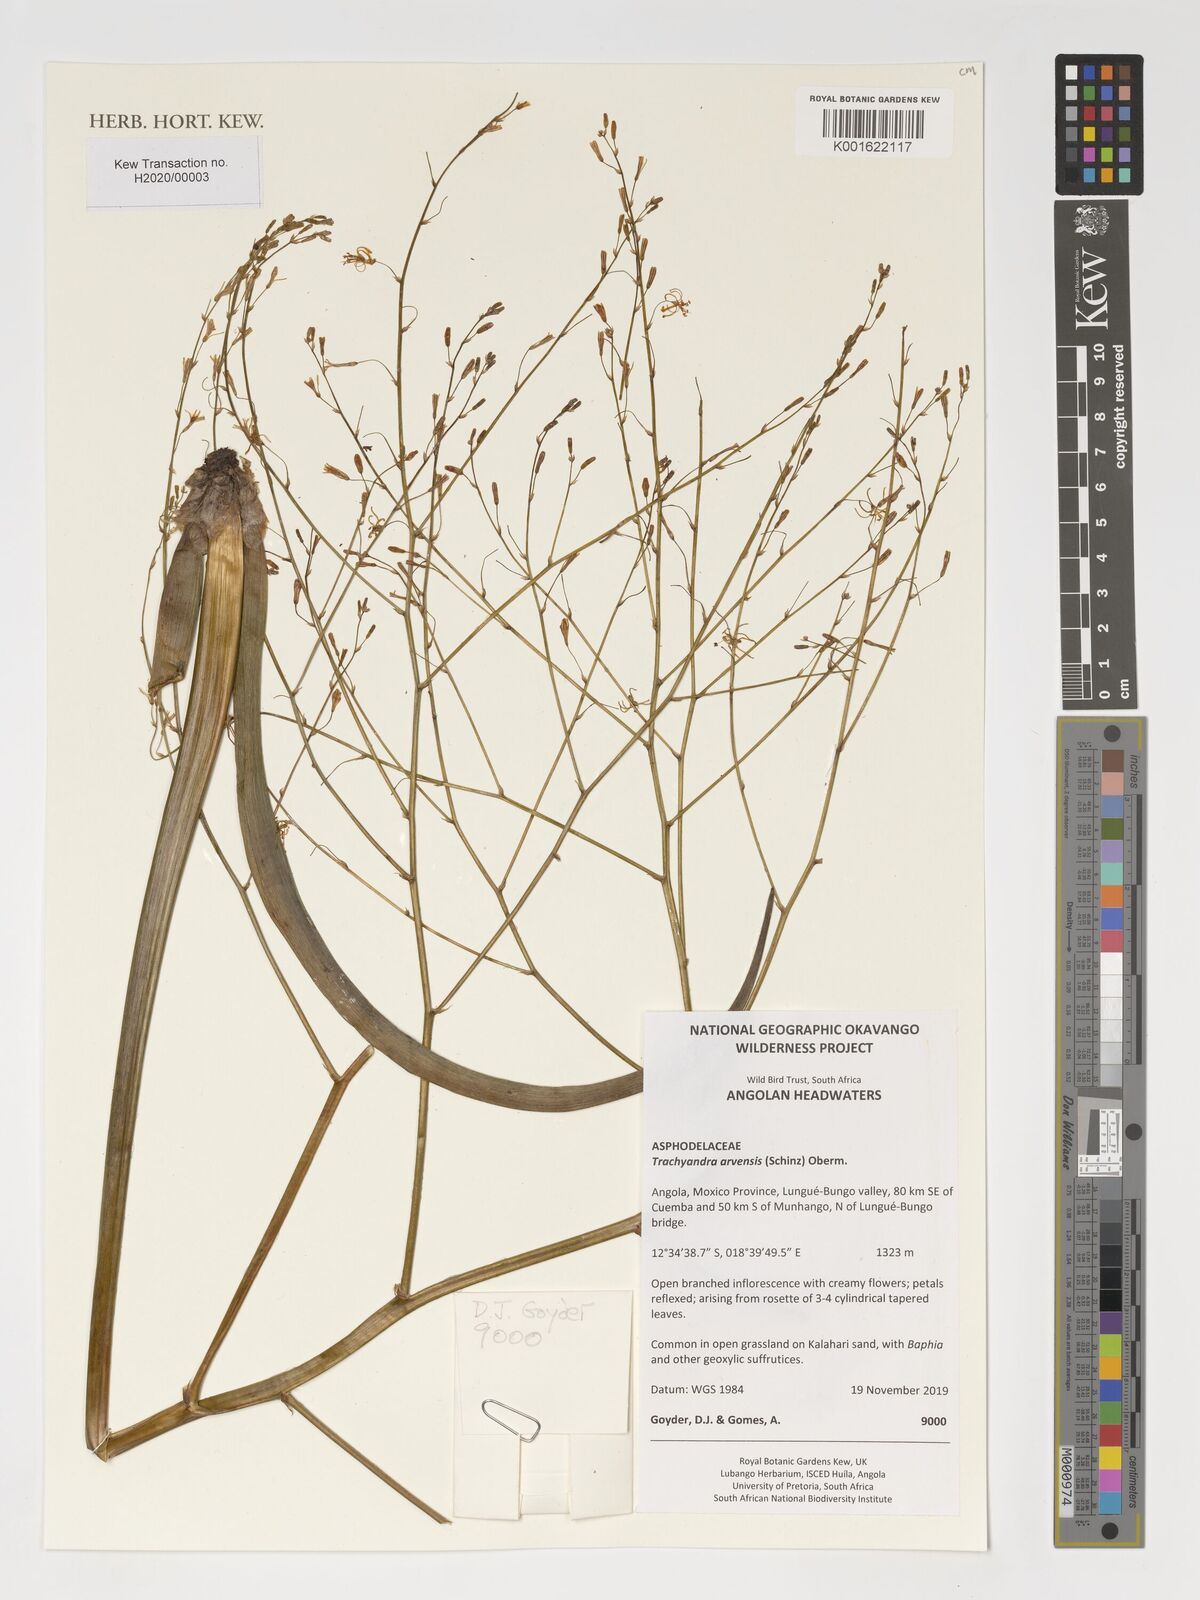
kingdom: Plantae
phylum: Tracheophyta
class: Liliopsida
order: Asparagales
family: Asphodelaceae
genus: Trachyandra
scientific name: Trachyandra arvensis
